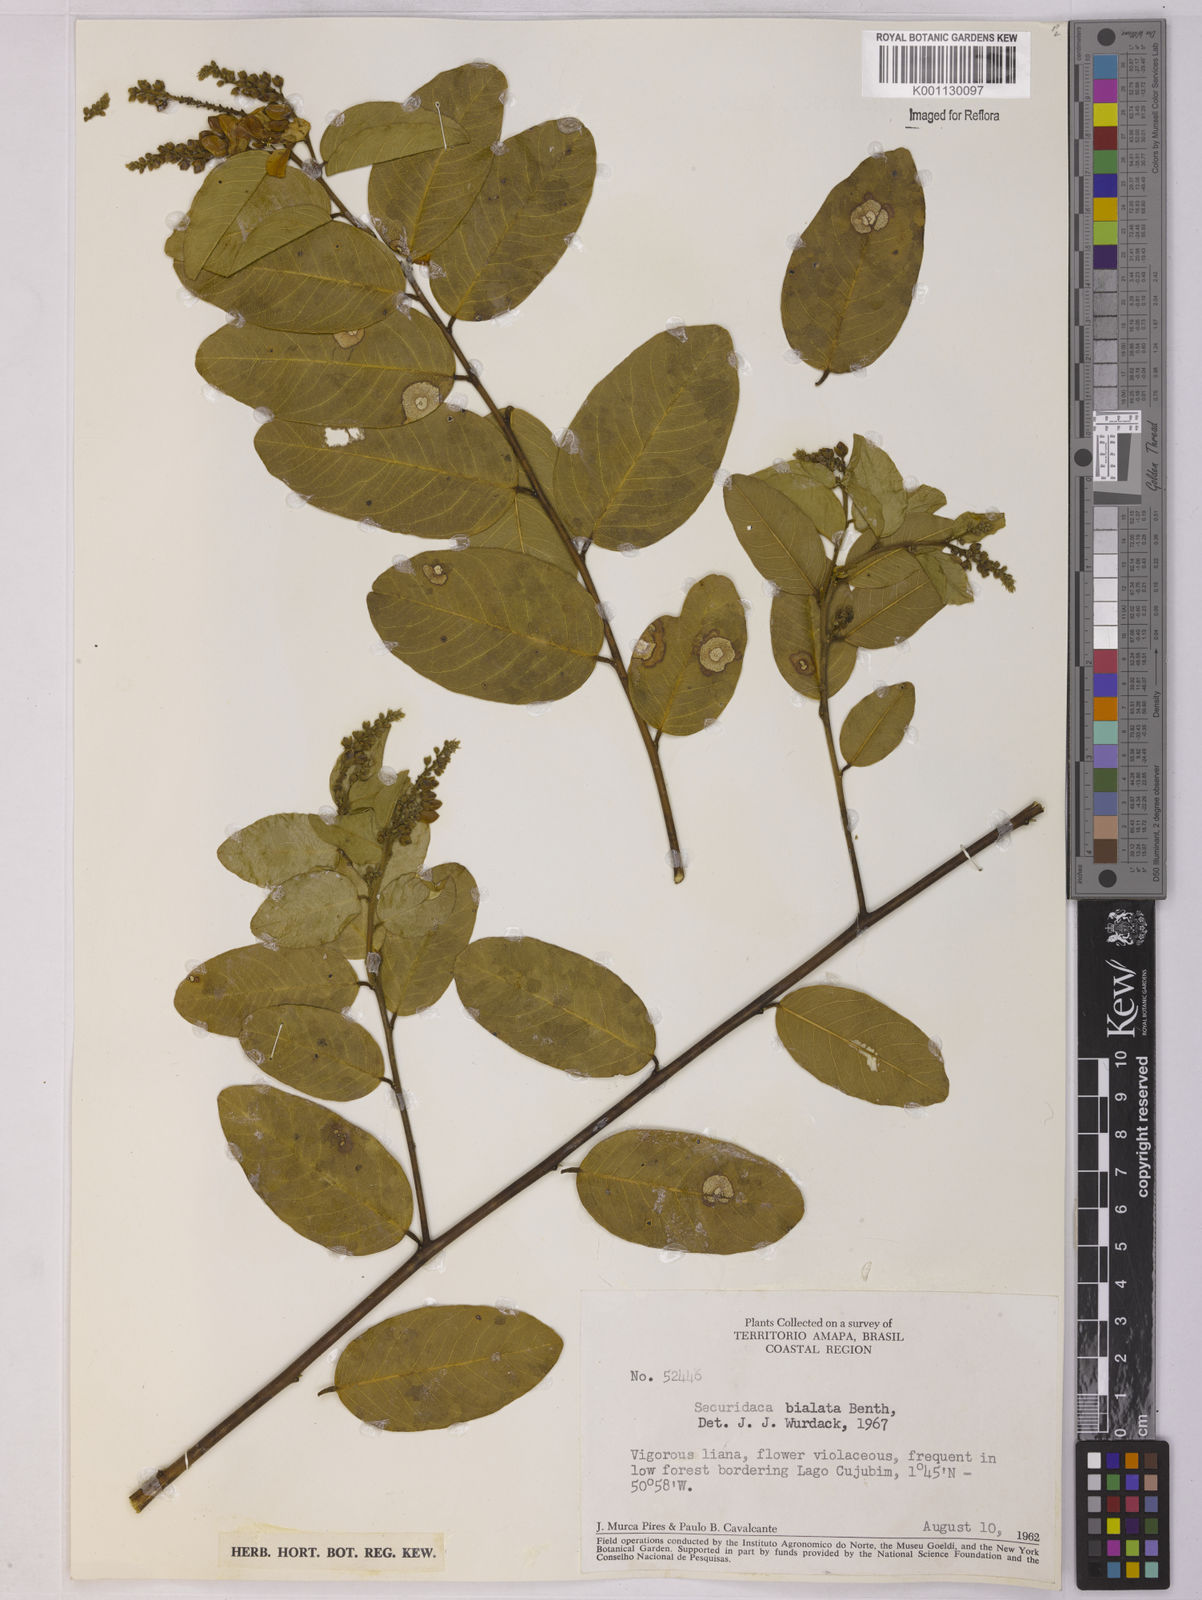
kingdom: Plantae
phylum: Tracheophyta
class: Magnoliopsida
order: Fabales
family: Polygalaceae
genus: Securidaca
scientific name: Securidaca bialata
